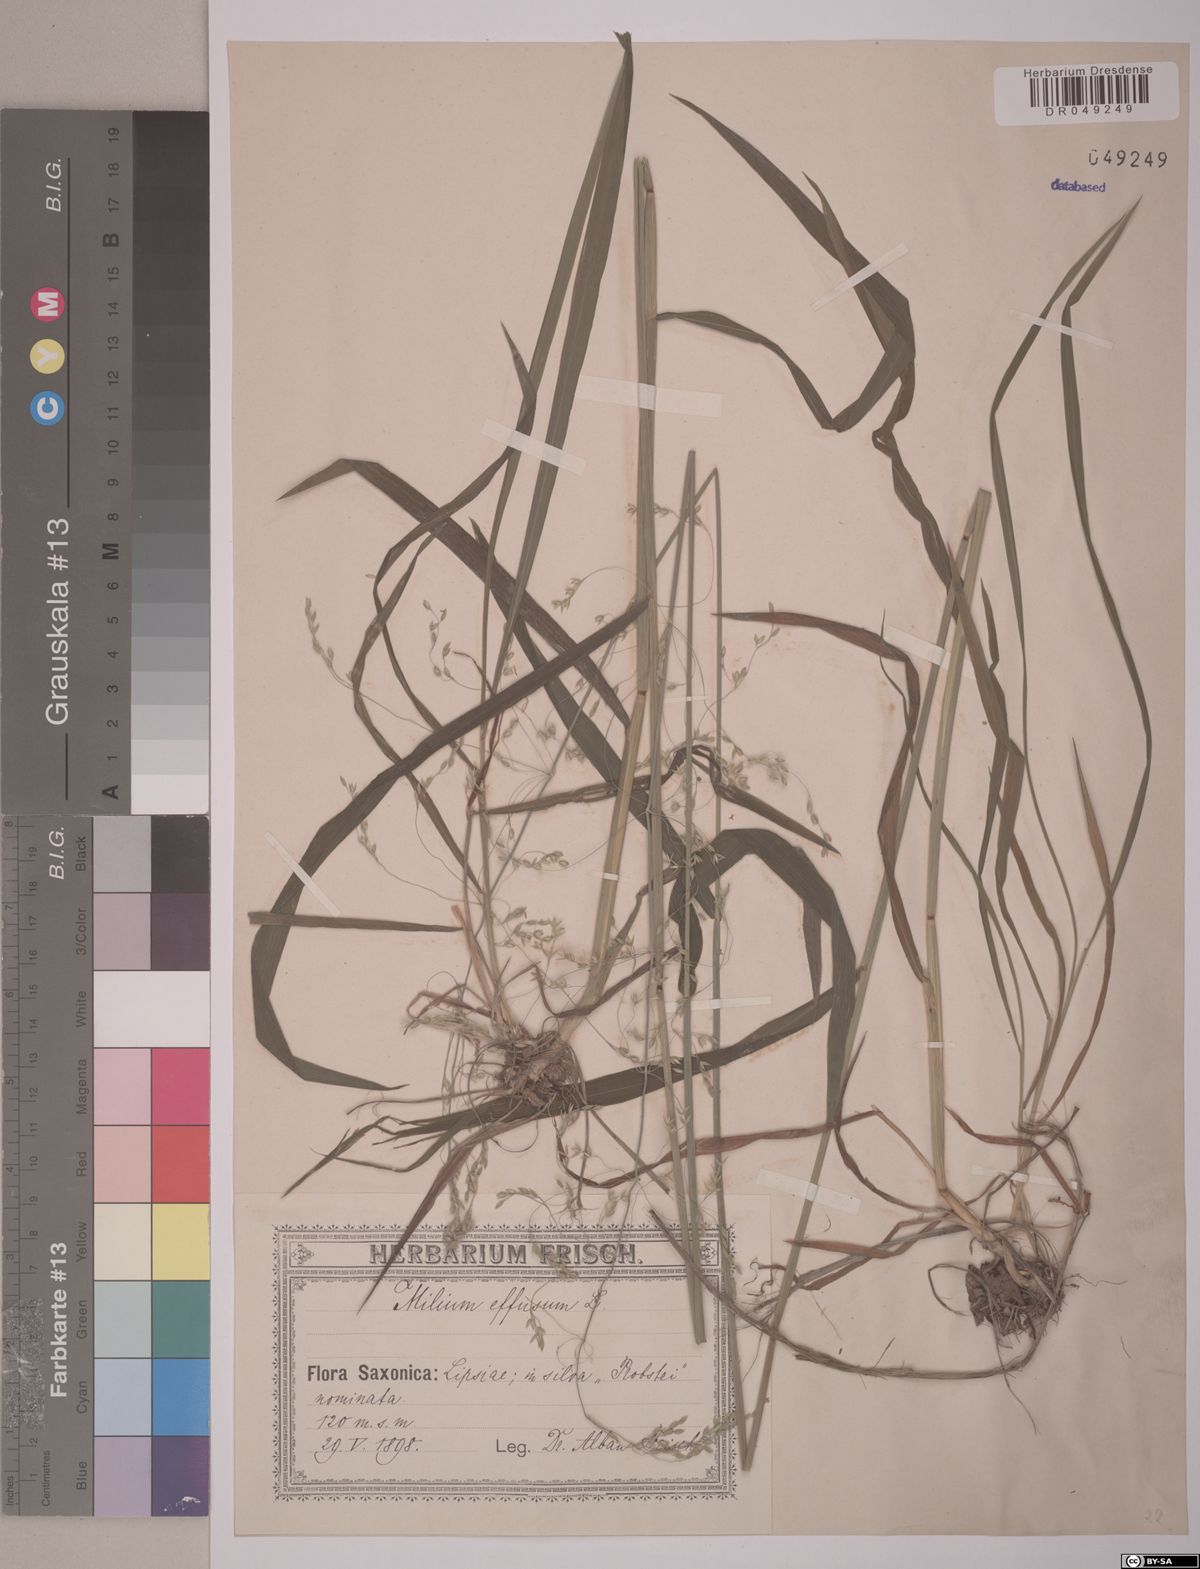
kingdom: Plantae
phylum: Tracheophyta
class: Liliopsida
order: Poales
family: Poaceae
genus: Milium
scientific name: Milium effusum
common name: Wood millet
